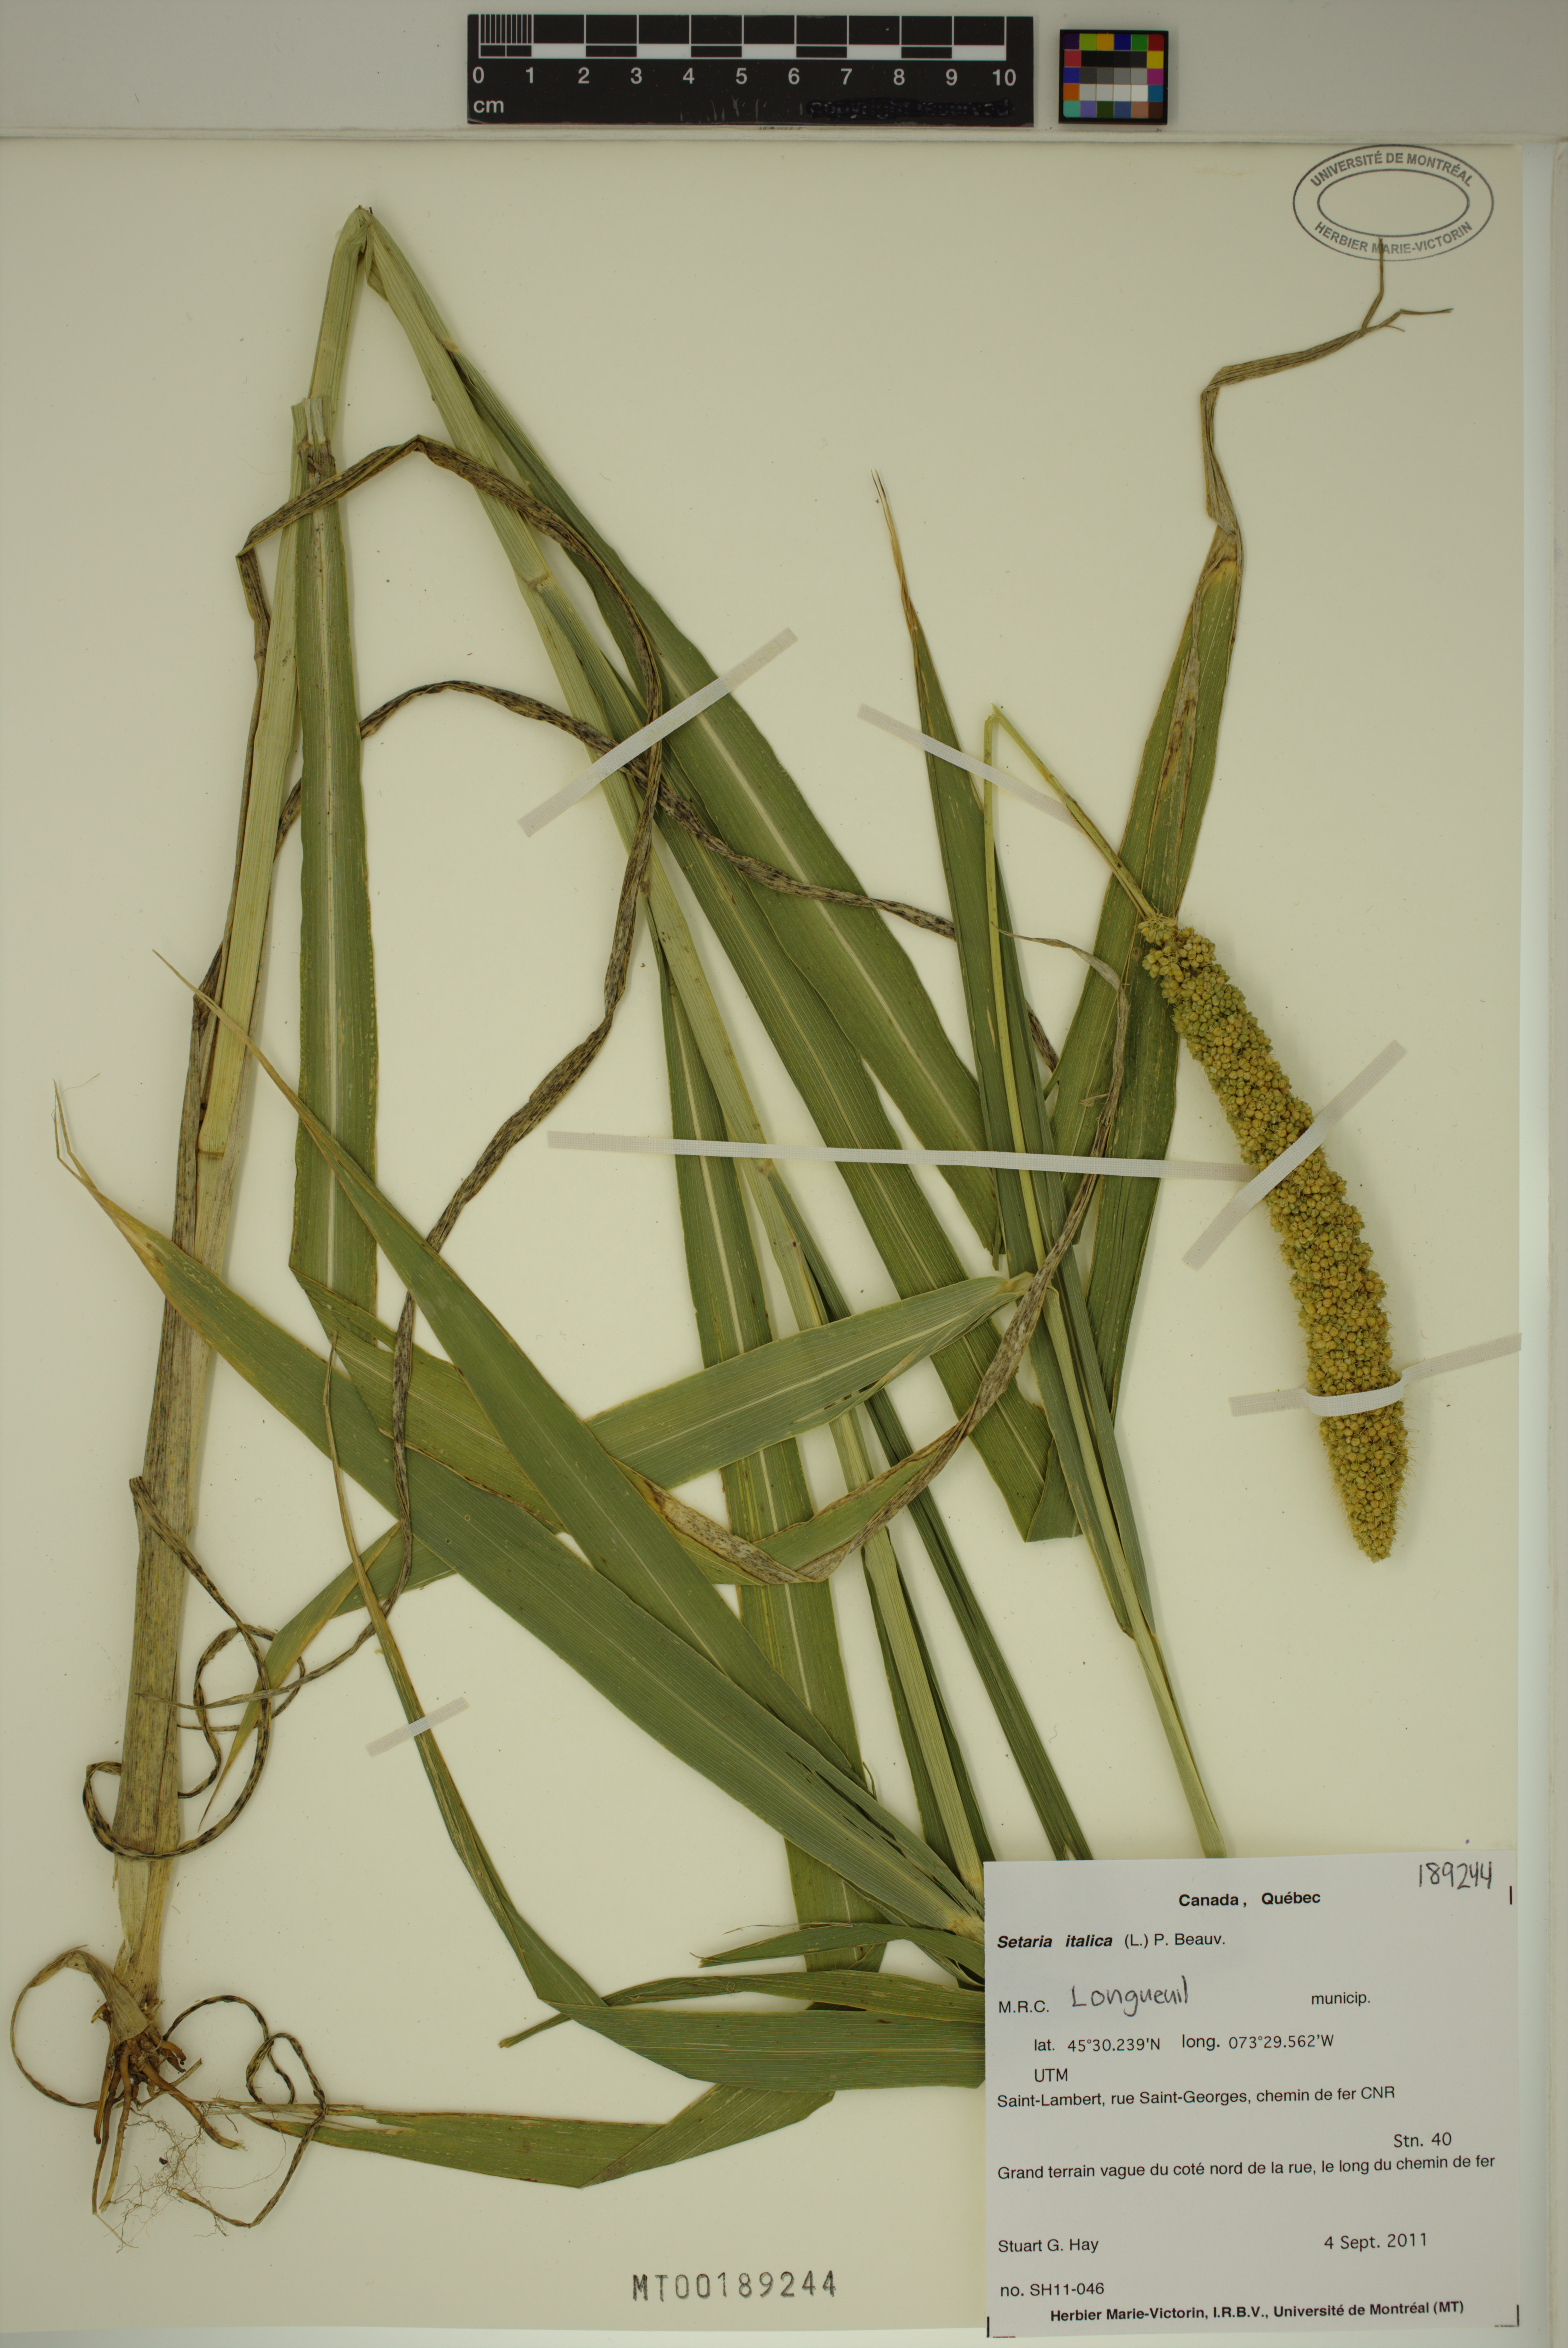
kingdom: Plantae
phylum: Tracheophyta
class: Liliopsida
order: Poales
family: Poaceae
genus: Setaria
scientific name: Setaria italica
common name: Foxtail bristle-grass
